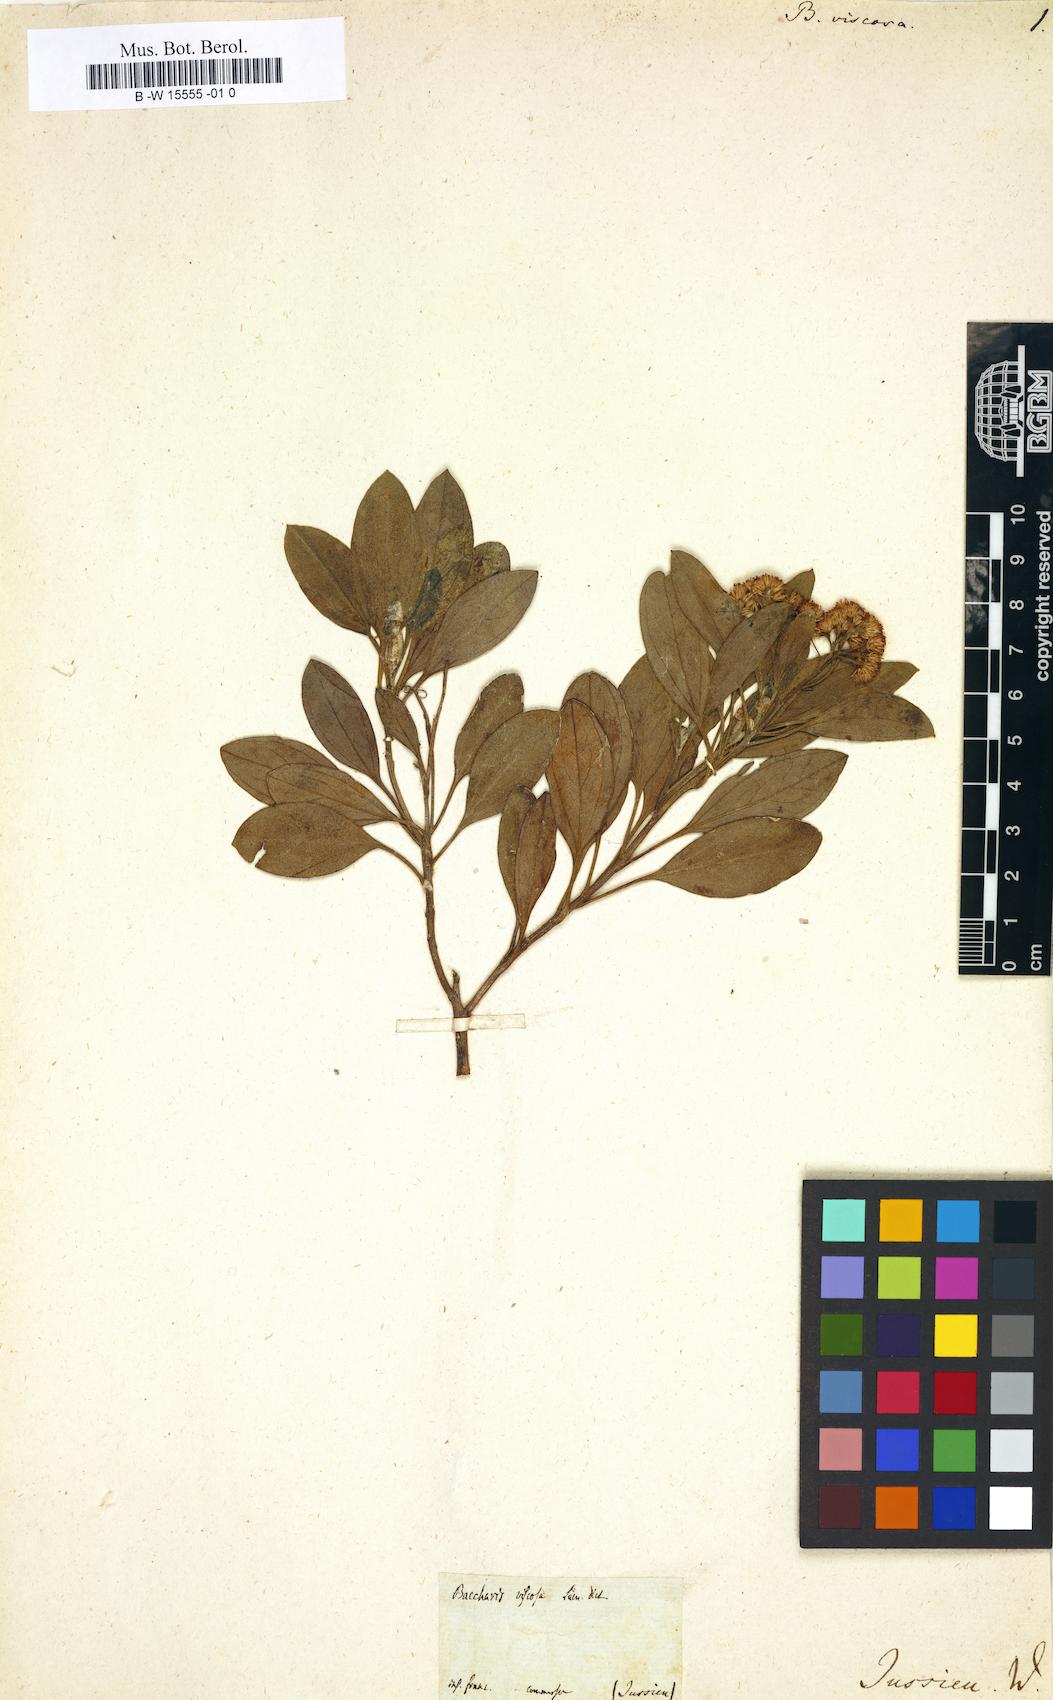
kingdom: Plantae
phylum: Tracheophyta
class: Magnoliopsida
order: Asterales
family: Asteraceae
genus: Psiadia
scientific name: Psiadia viscosa
